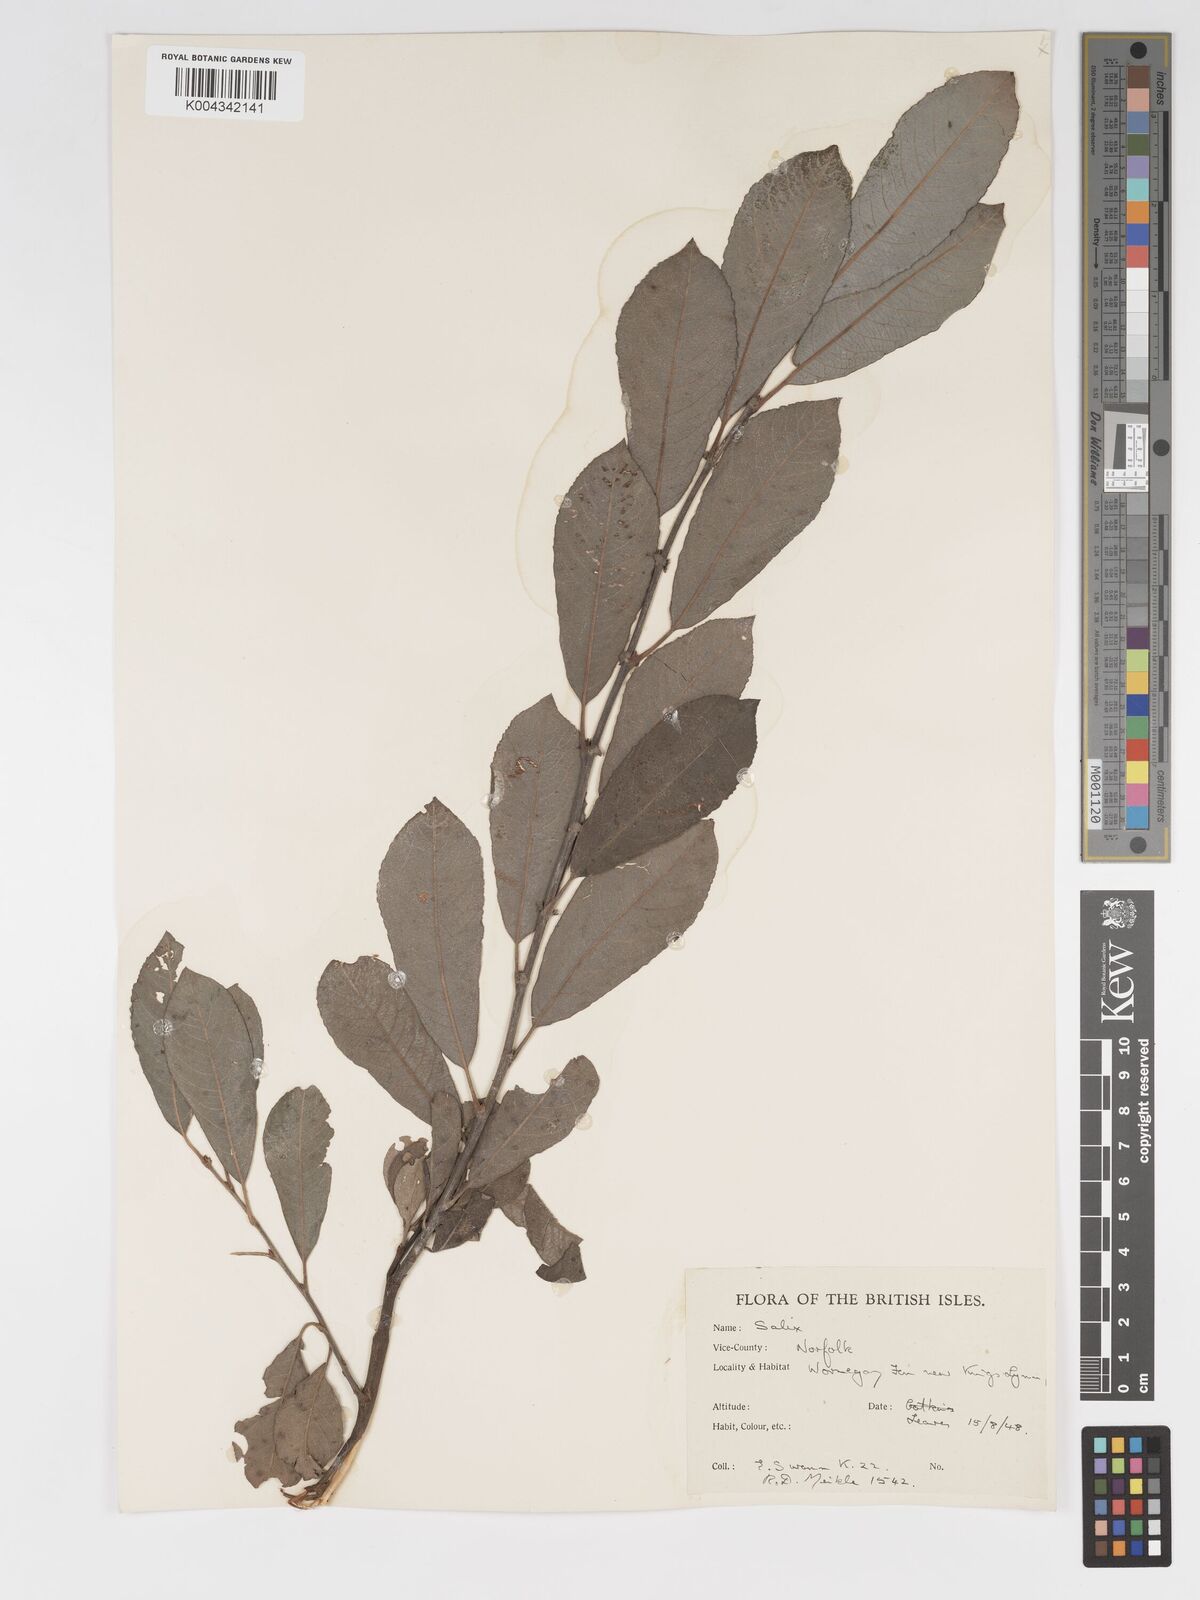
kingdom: Plantae
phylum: Tracheophyta
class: Magnoliopsida
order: Malpighiales
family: Salicaceae
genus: Salix
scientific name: Salix
